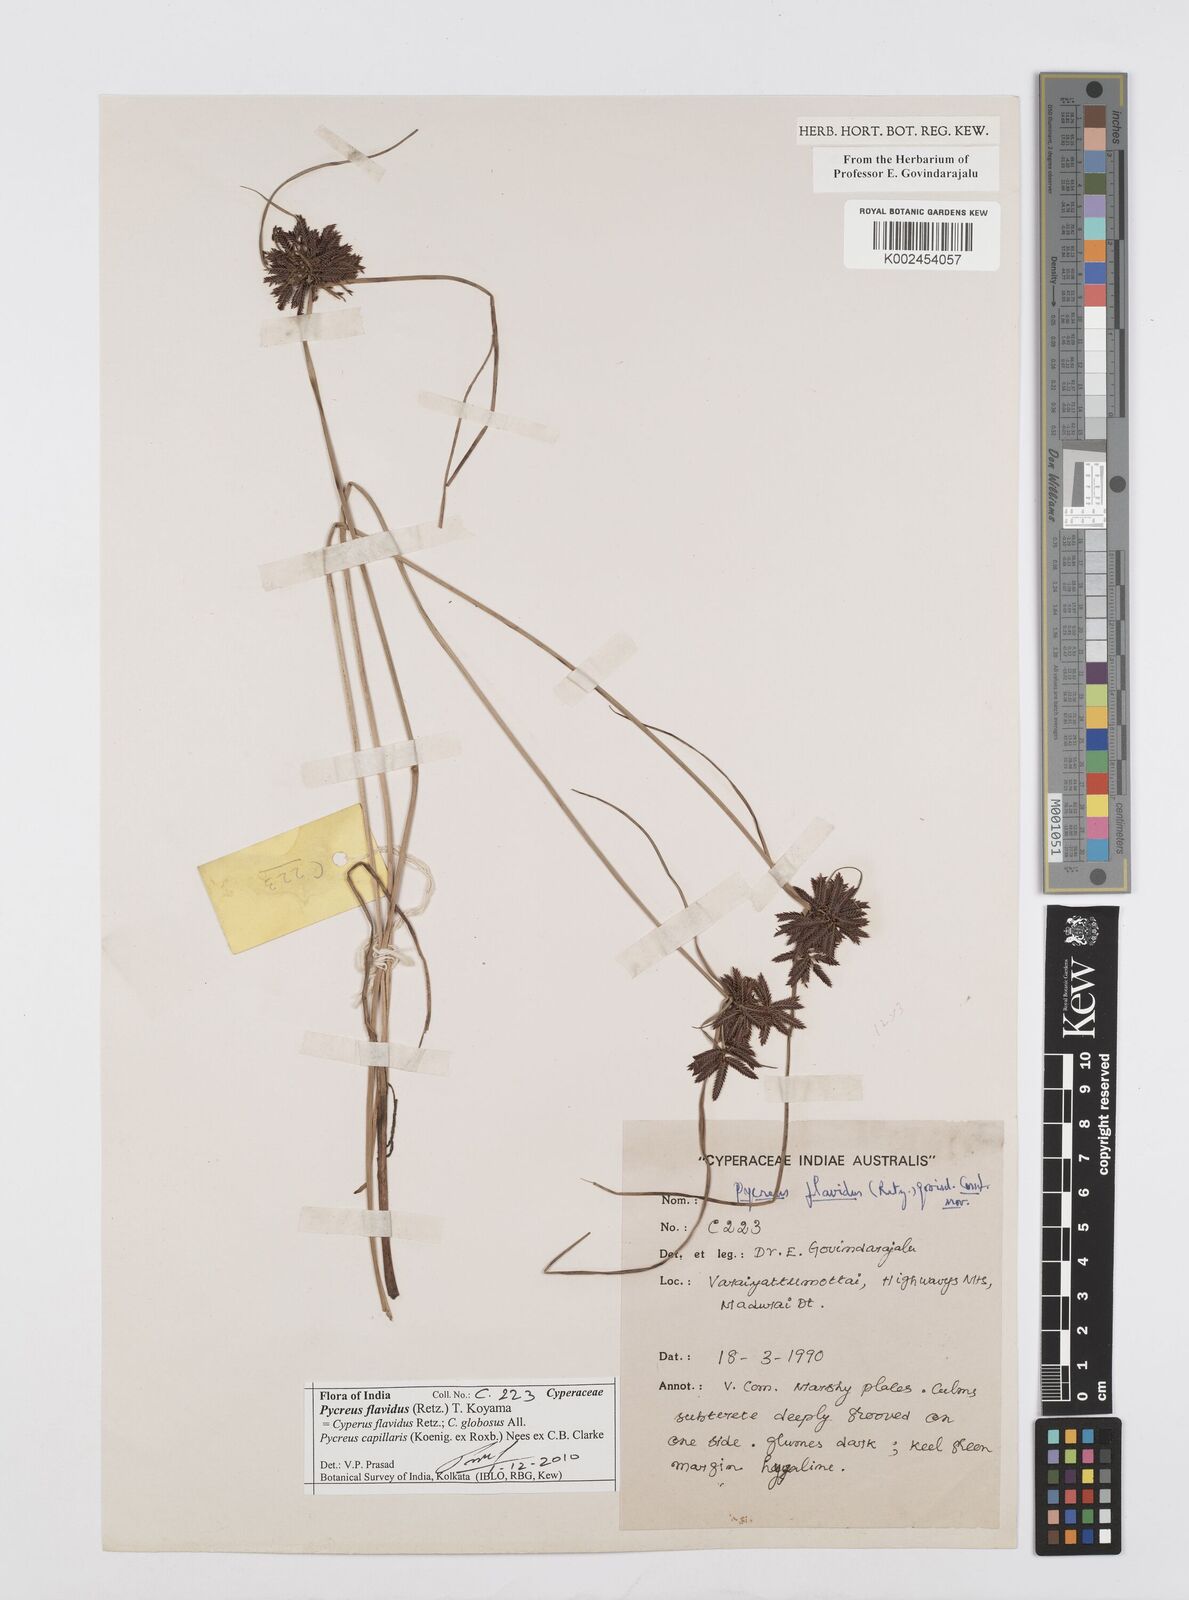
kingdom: Plantae
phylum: Tracheophyta
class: Liliopsida
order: Poales
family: Cyperaceae
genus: Cyperus
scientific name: Cyperus flavidus
